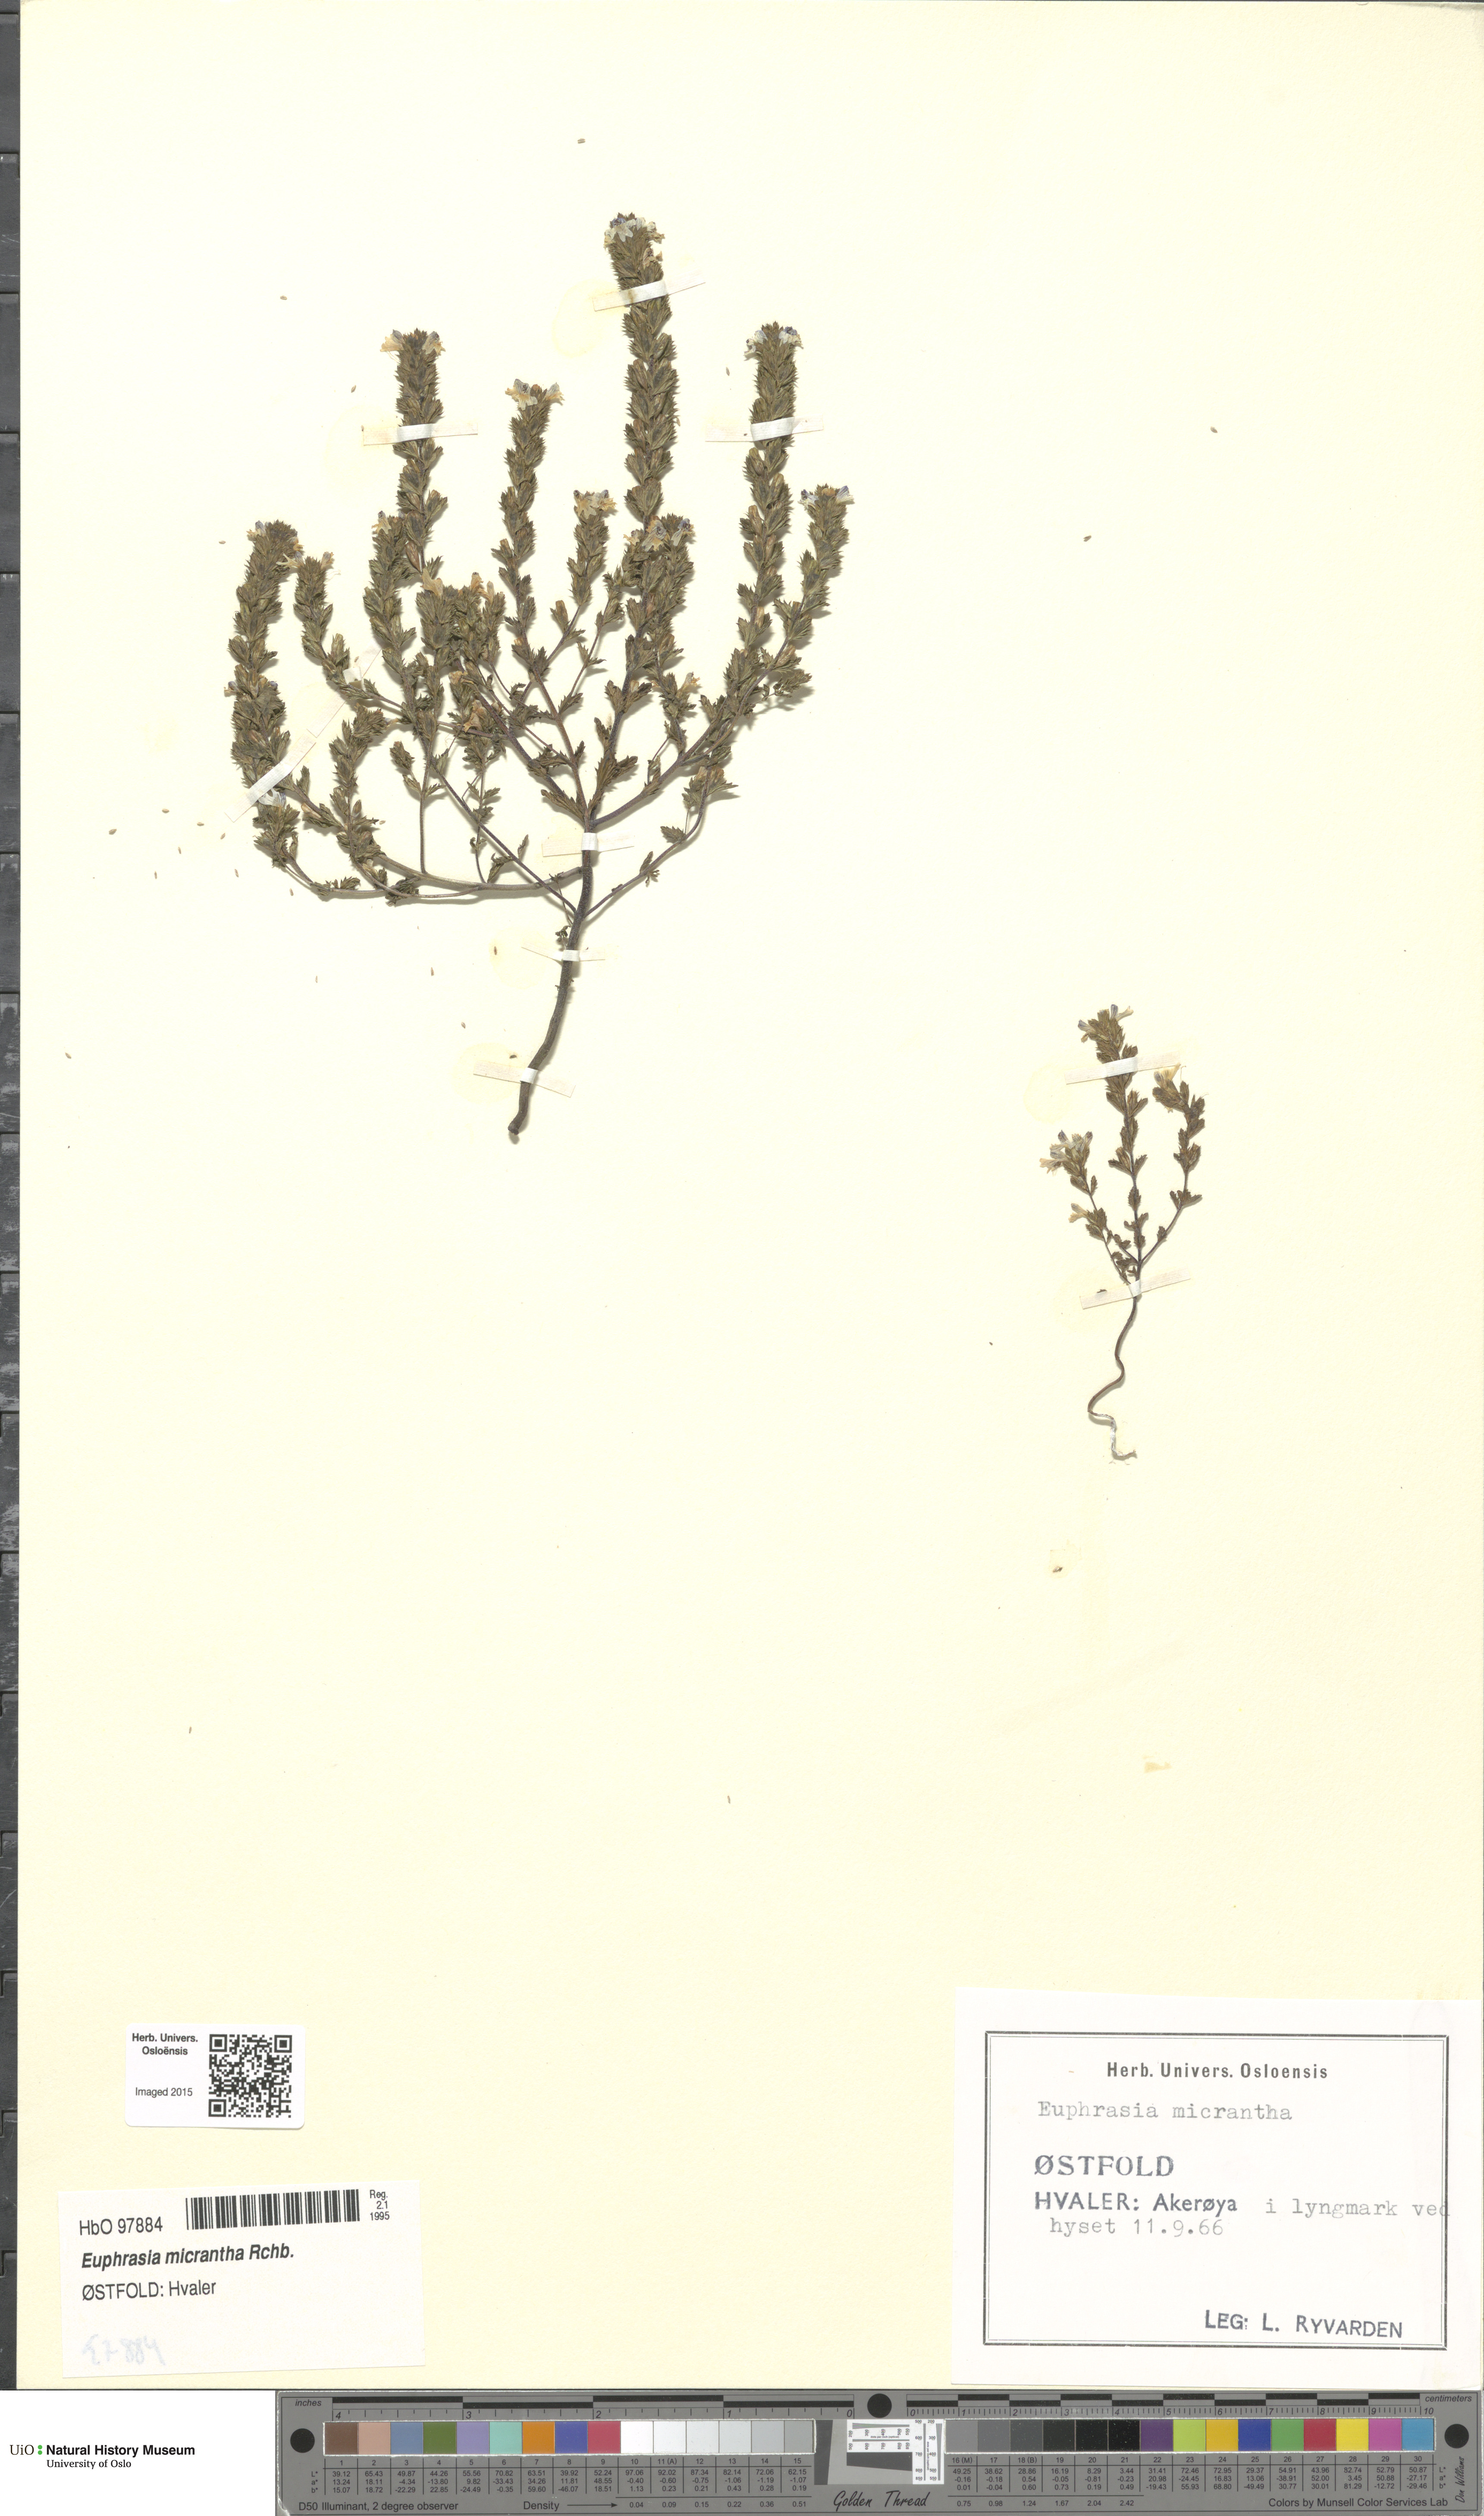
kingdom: Plantae
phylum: Tracheophyta
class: Magnoliopsida
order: Lamiales
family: Orobanchaceae
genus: Euphrasia
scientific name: Euphrasia micrantha
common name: Northern eyebright
